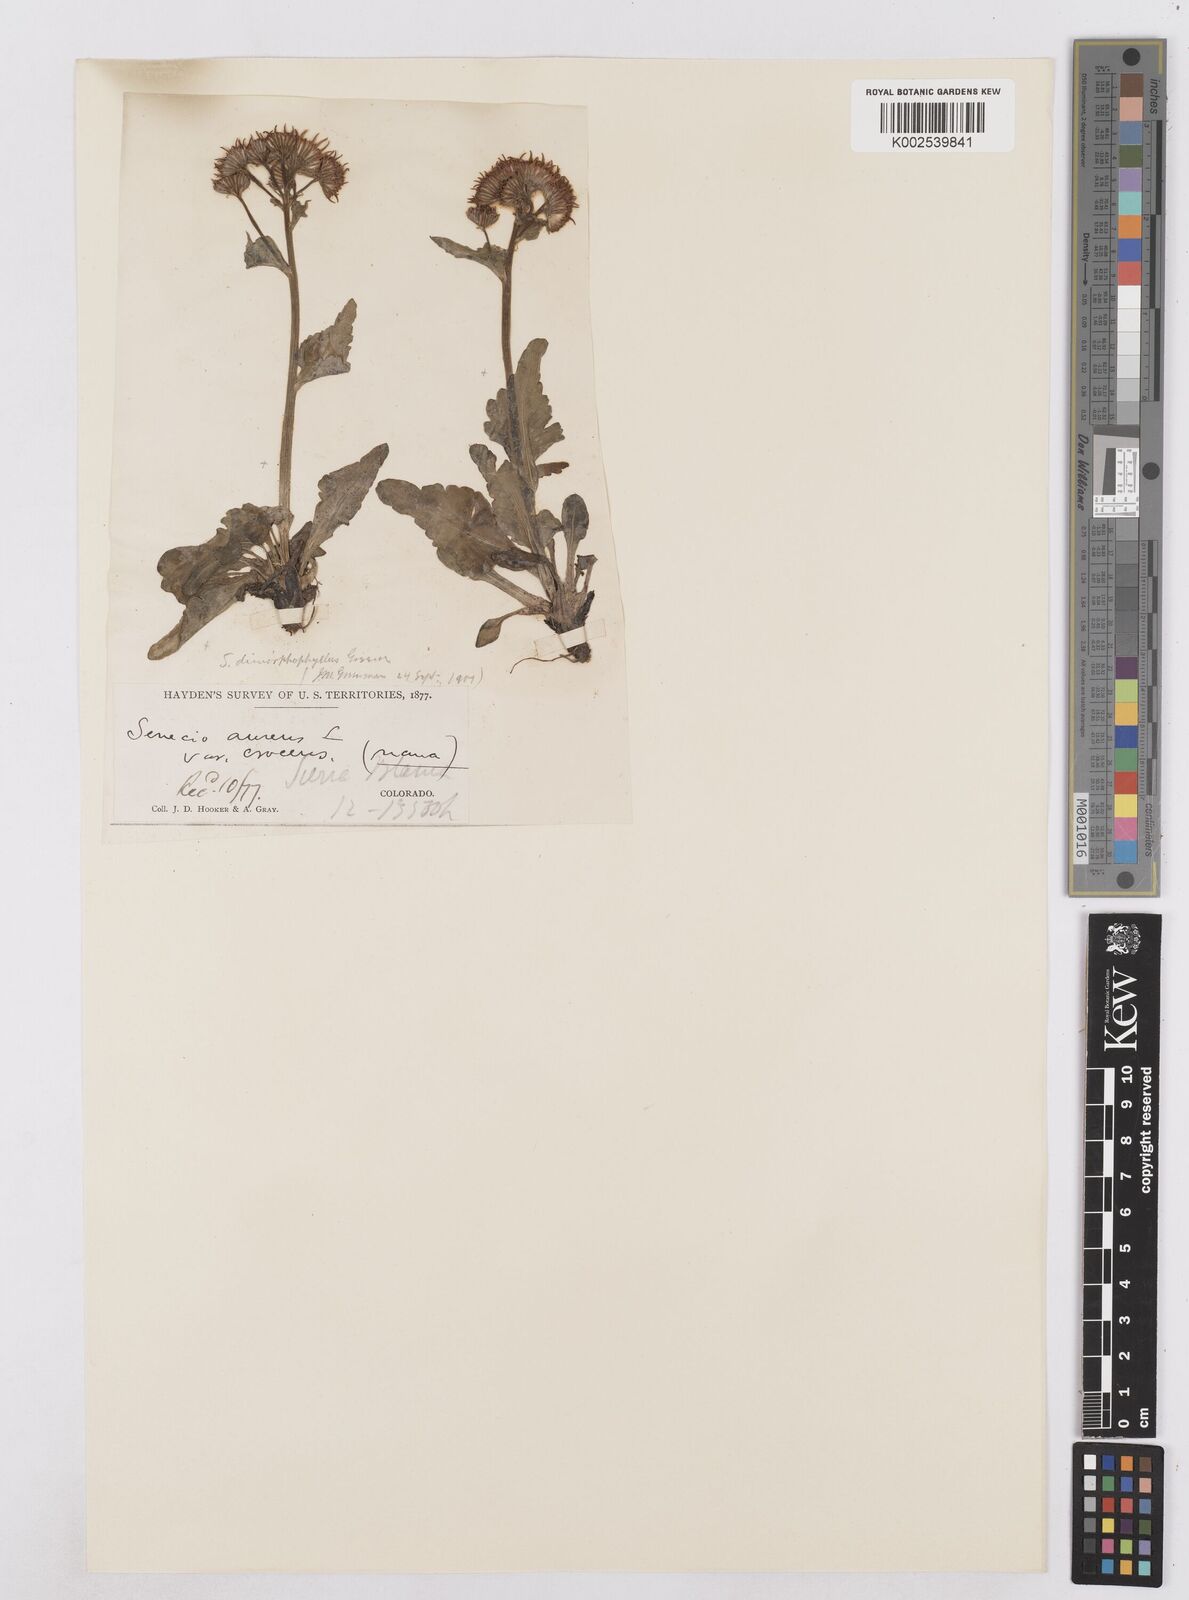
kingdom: Plantae
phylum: Tracheophyta
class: Magnoliopsida
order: Asterales
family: Asteraceae
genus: Packera
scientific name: Packera dimorphophylla
